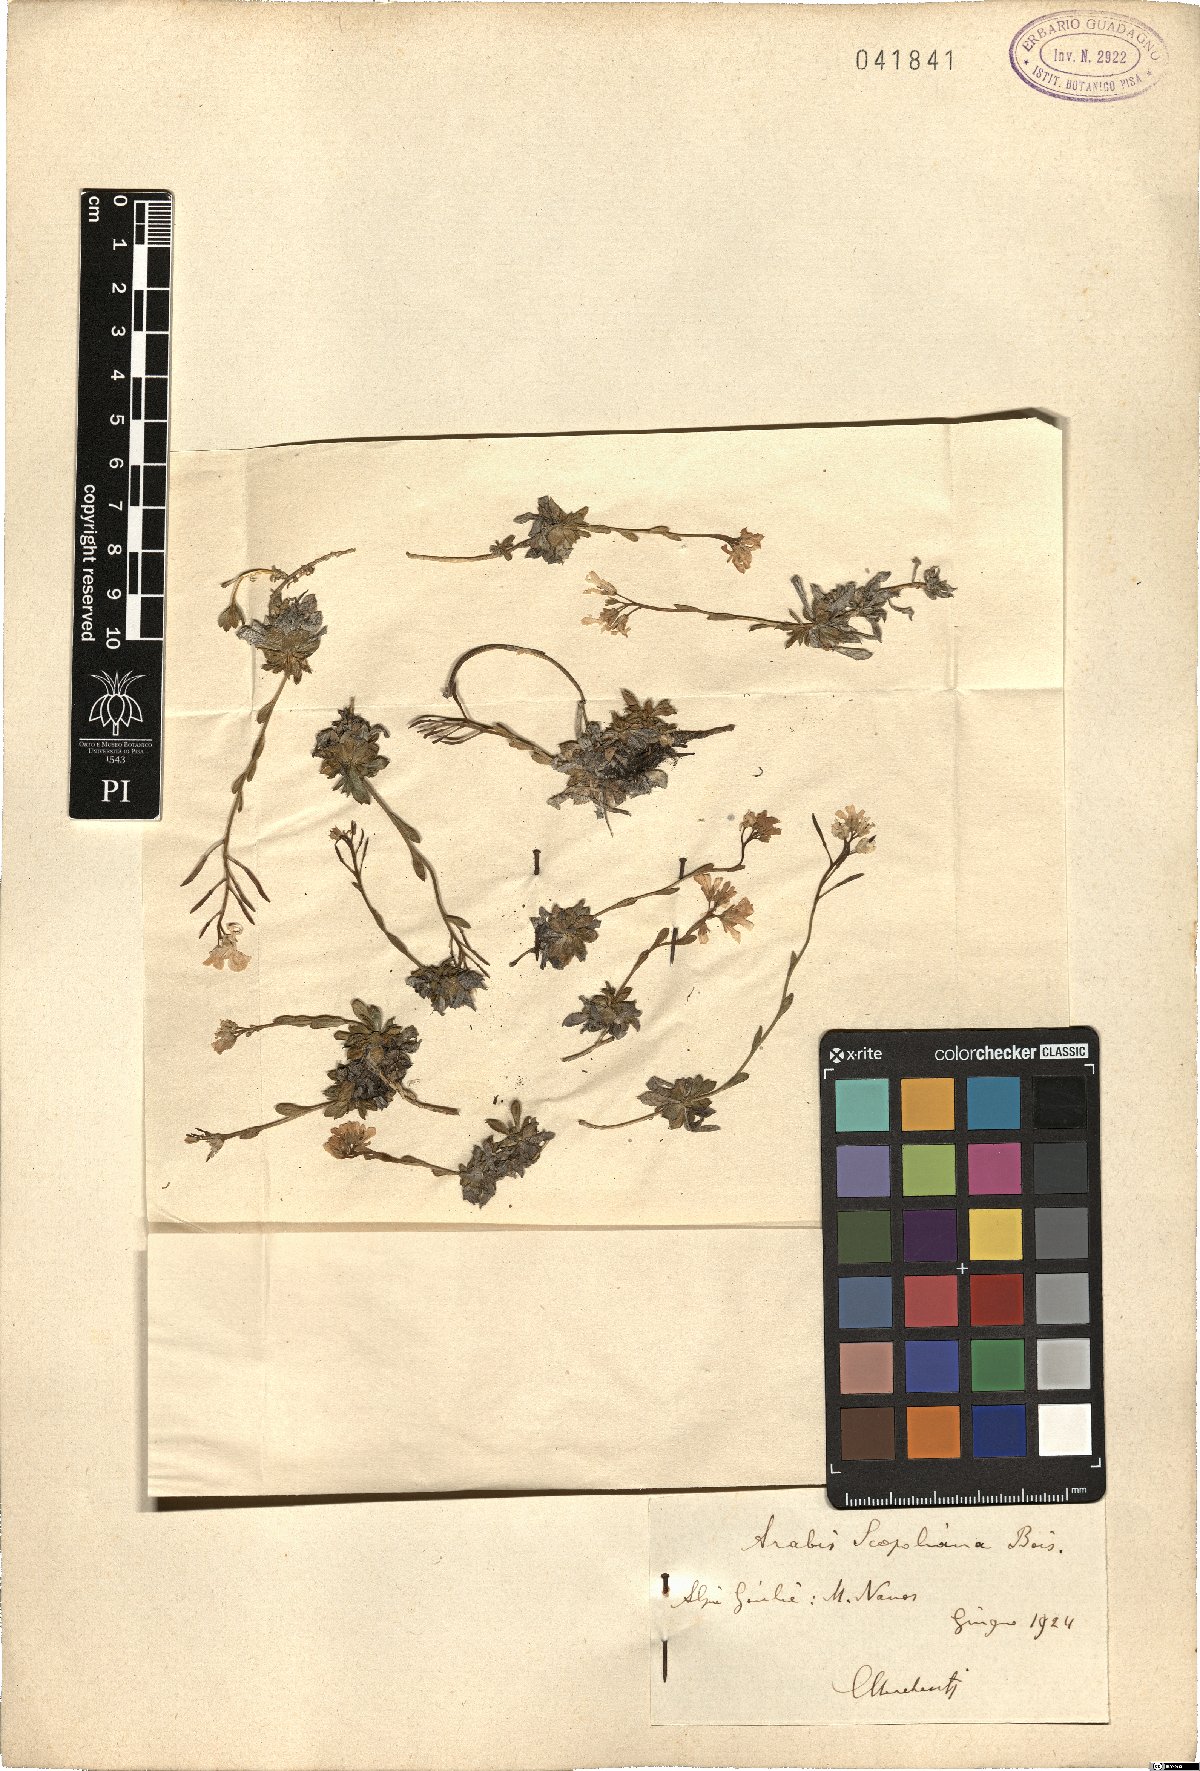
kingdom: Plantae
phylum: Tracheophyta
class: Magnoliopsida
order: Brassicales
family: Brassicaceae
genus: Arabis
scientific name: Arabis scopoliana
